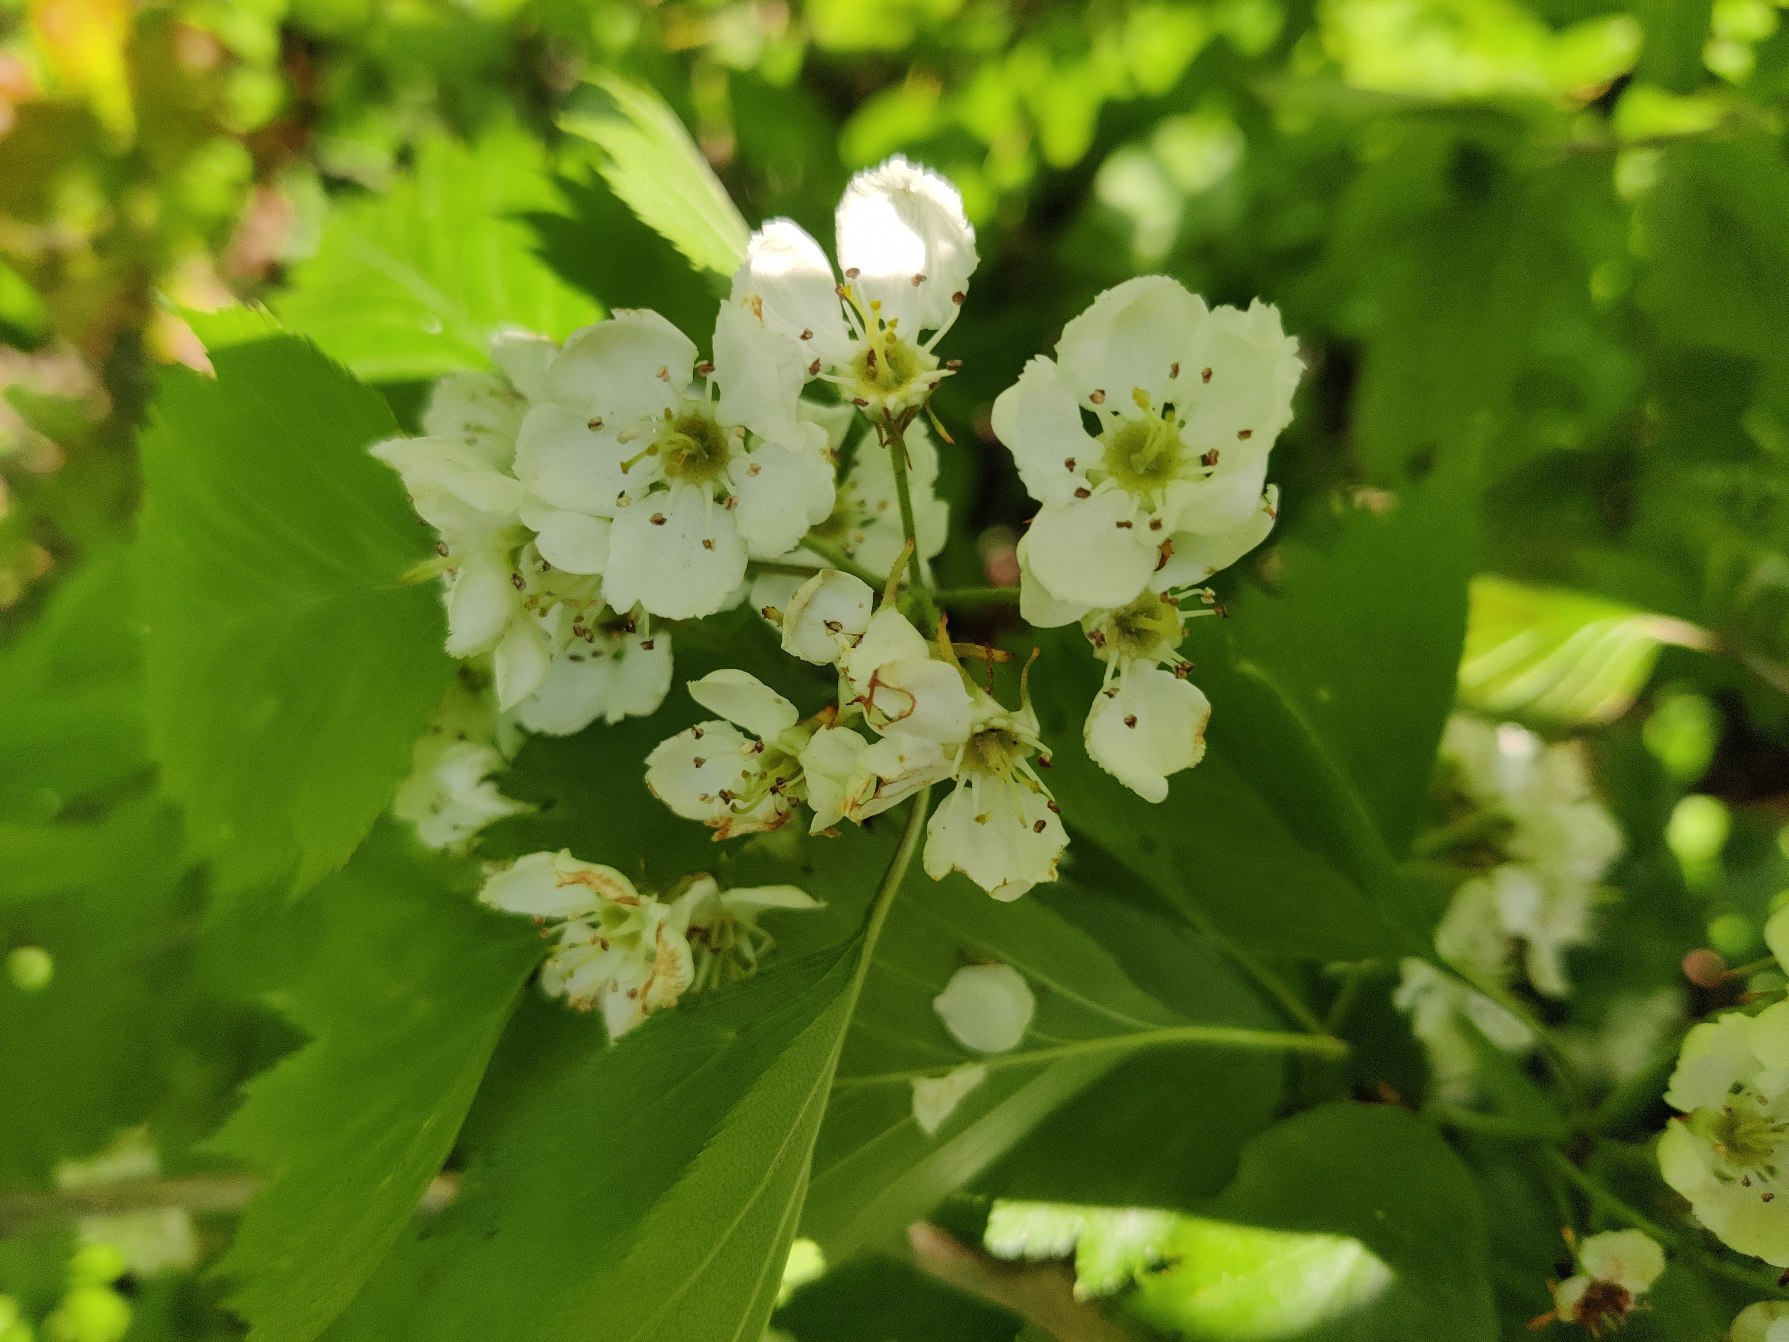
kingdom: Plantae
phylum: Tracheophyta
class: Magnoliopsida
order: Rosales
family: Rosaceae
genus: Crataegus
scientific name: Crataegus
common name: Hvidtjørnslægten
